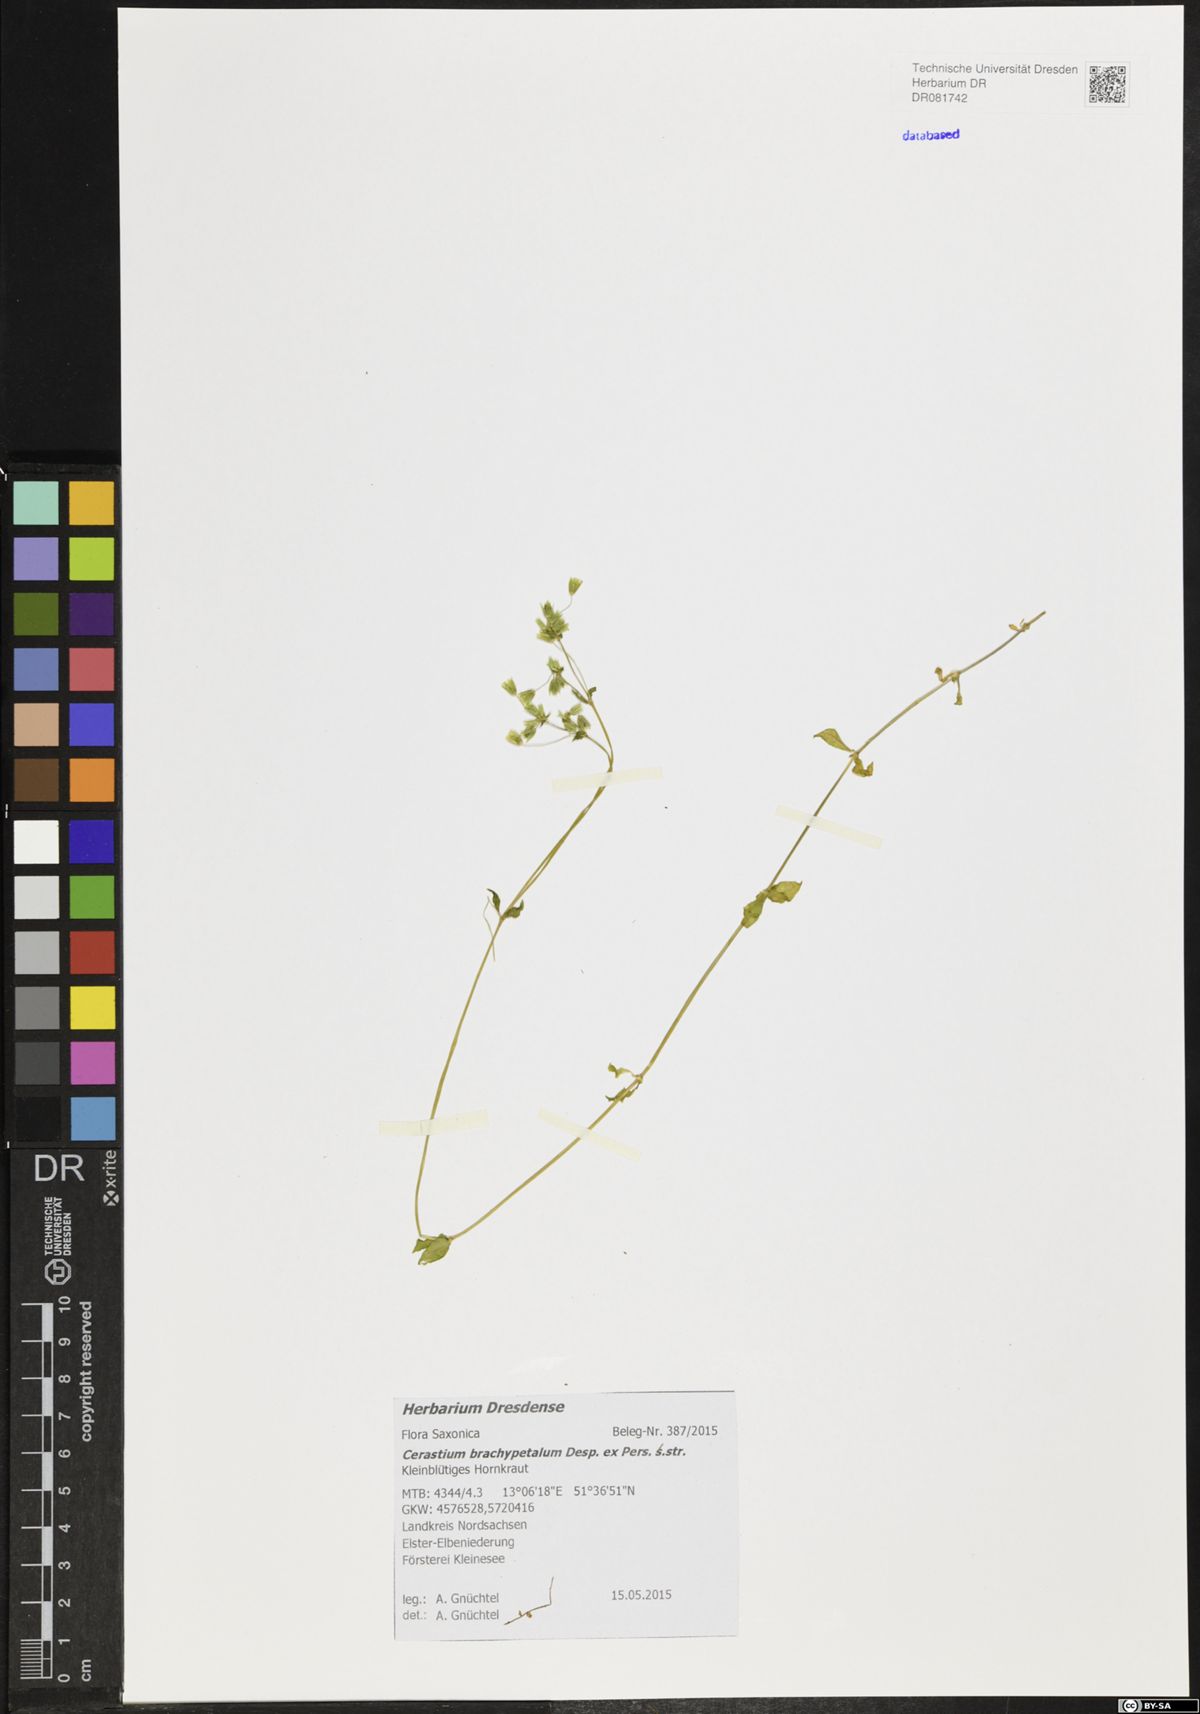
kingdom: Plantae
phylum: Tracheophyta
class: Magnoliopsida
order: Caryophyllales
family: Caryophyllaceae
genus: Cerastium
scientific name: Cerastium brachypetalum
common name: Grey mouse-ear
